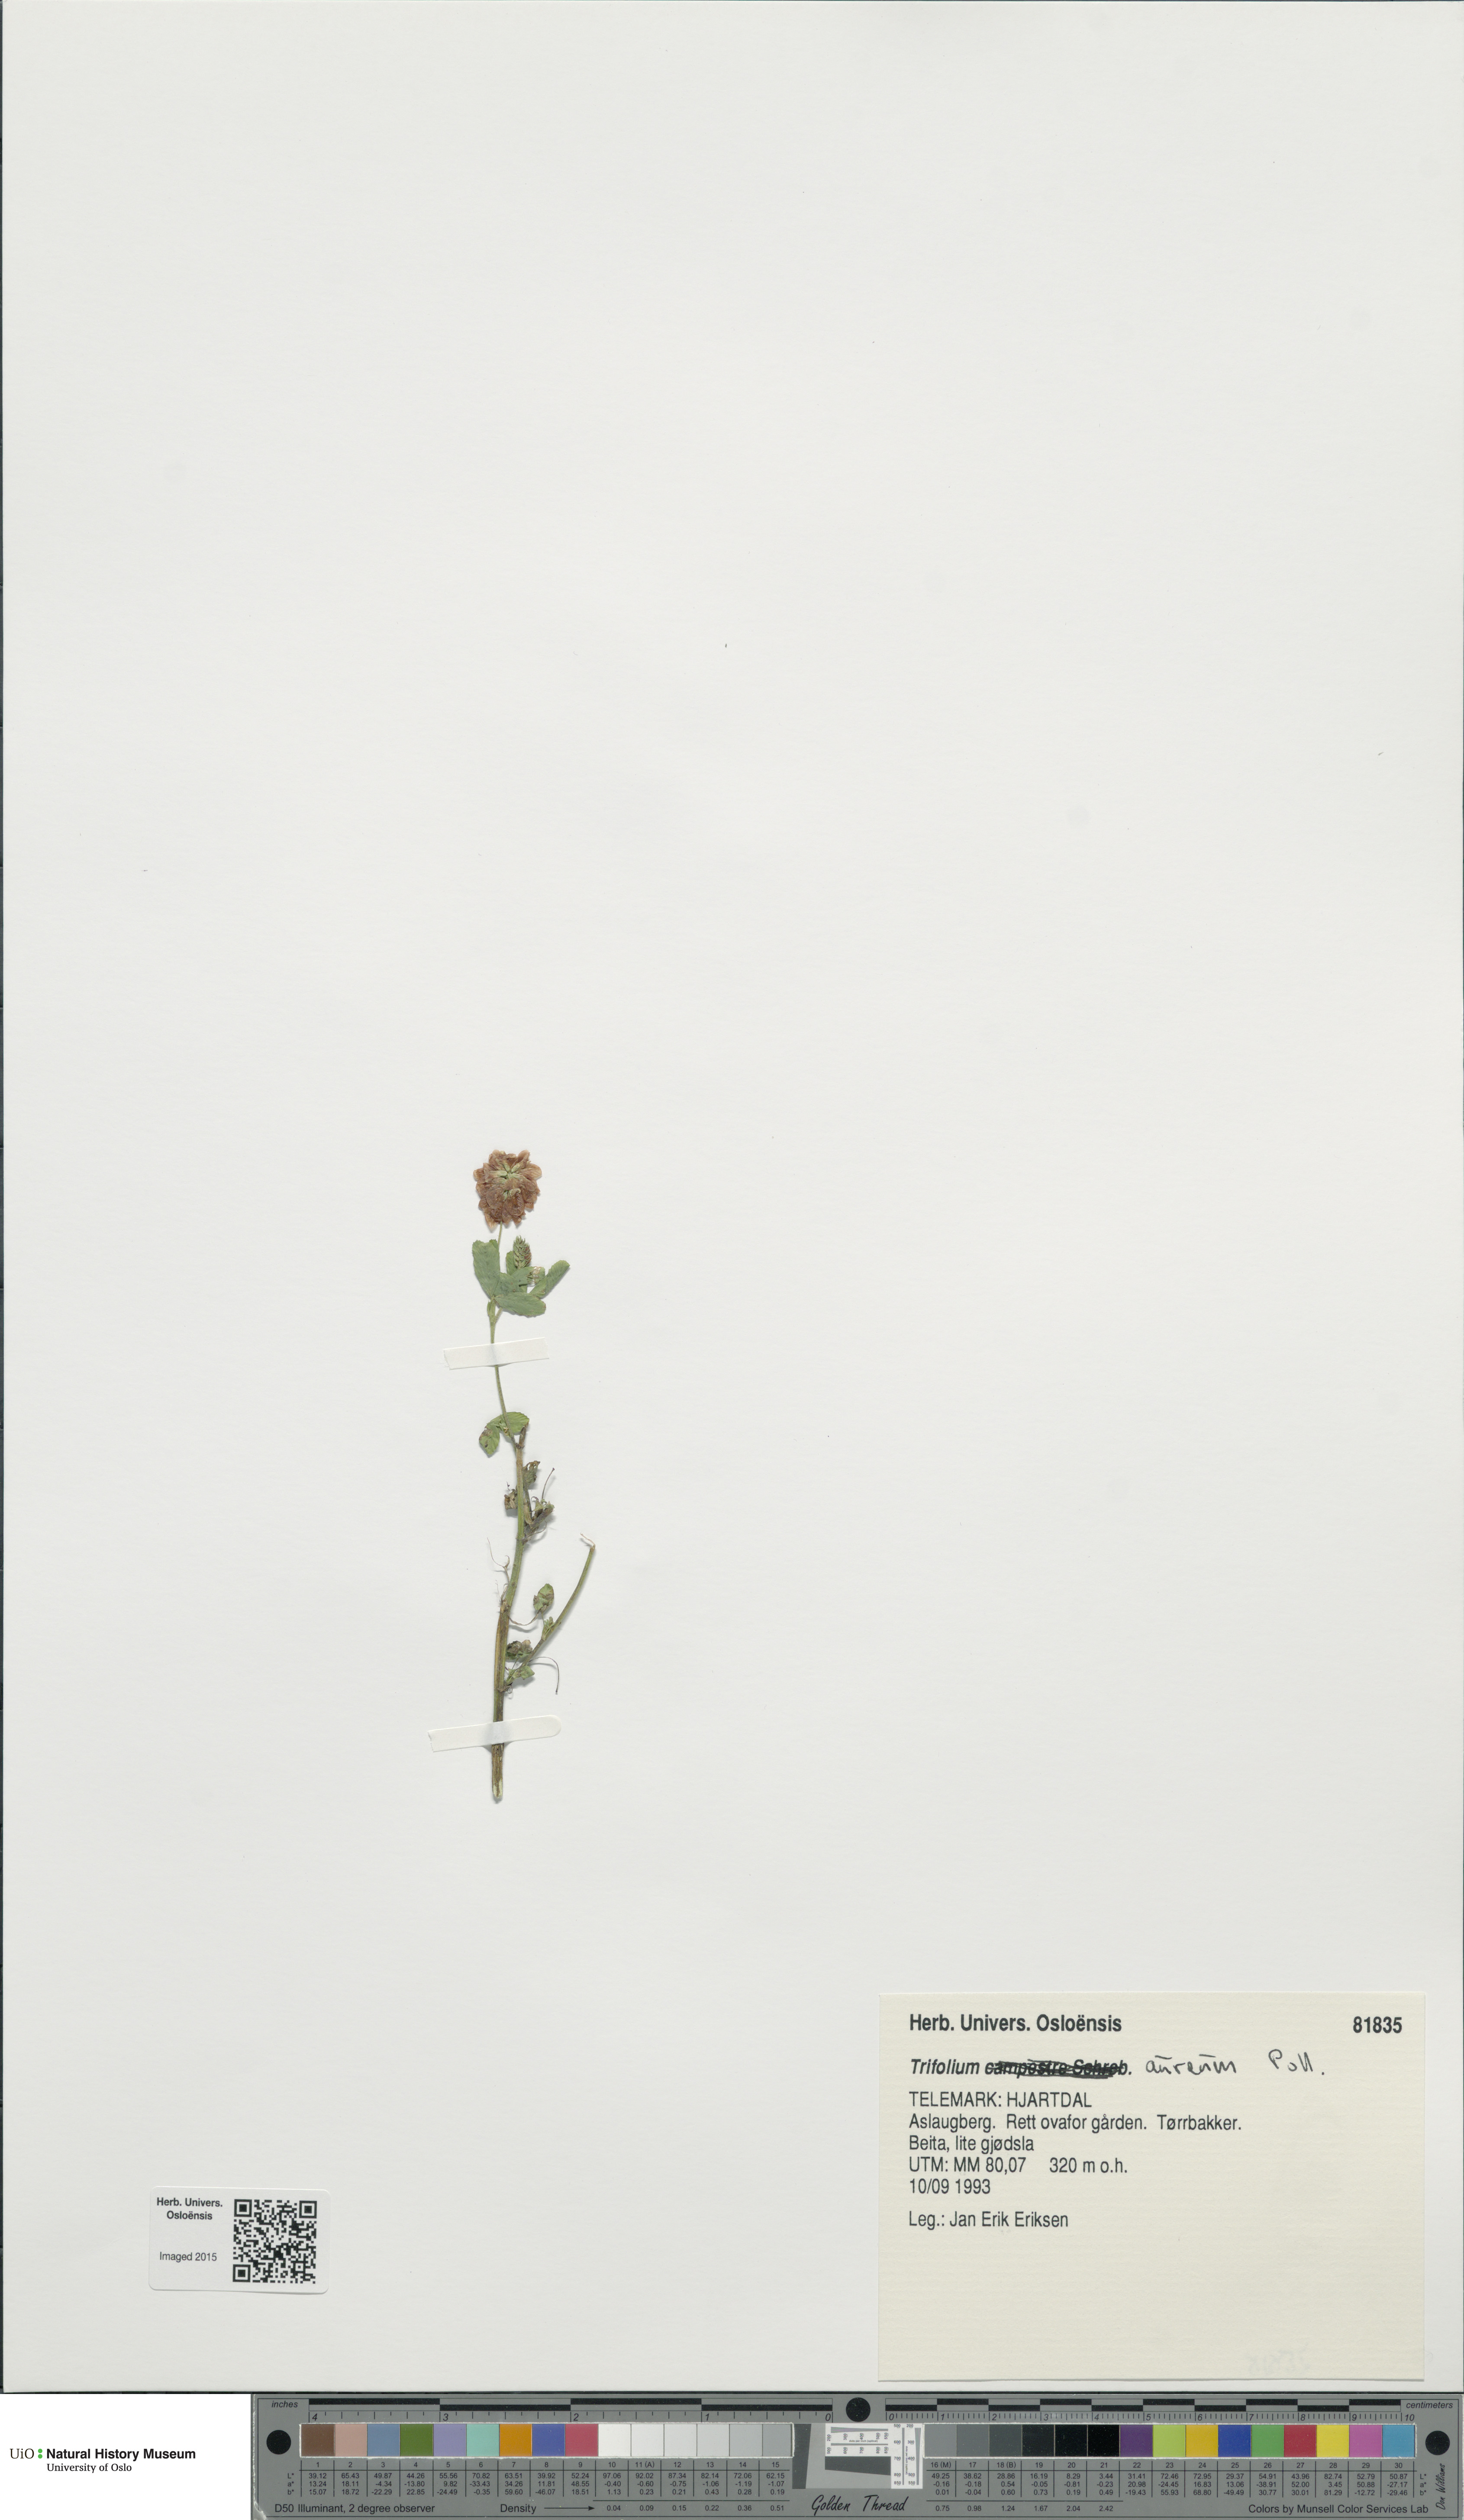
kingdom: Plantae
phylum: Tracheophyta
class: Magnoliopsida
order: Fabales
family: Fabaceae
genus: Trifolium
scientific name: Trifolium aureum
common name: Golden clover
